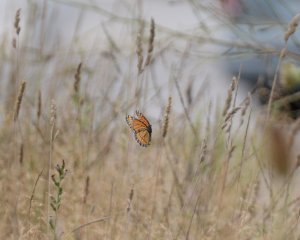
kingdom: Animalia
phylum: Arthropoda
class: Insecta
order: Lepidoptera
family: Nymphalidae
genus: Limenitis
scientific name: Limenitis archippus
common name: Viceroy
